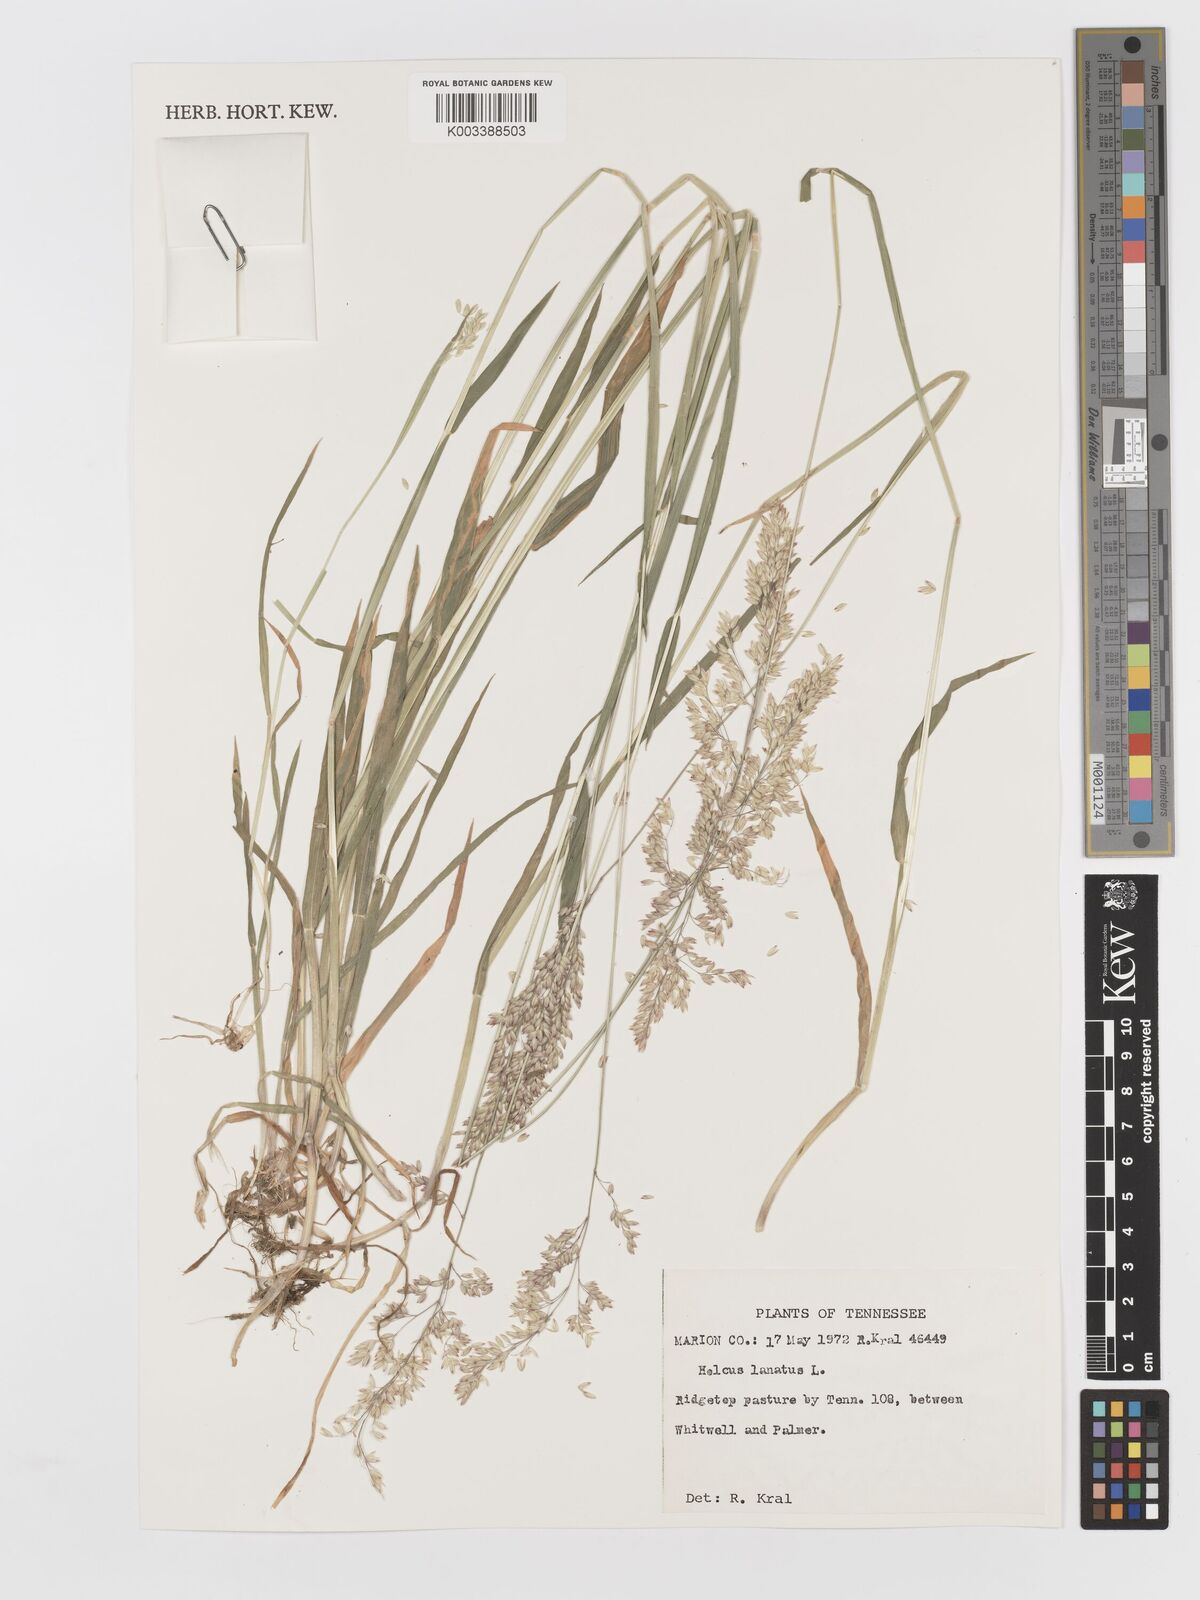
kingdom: Plantae
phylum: Tracheophyta
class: Liliopsida
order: Poales
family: Poaceae
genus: Holcus
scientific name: Holcus lanatus
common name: Yorkshire-fog
